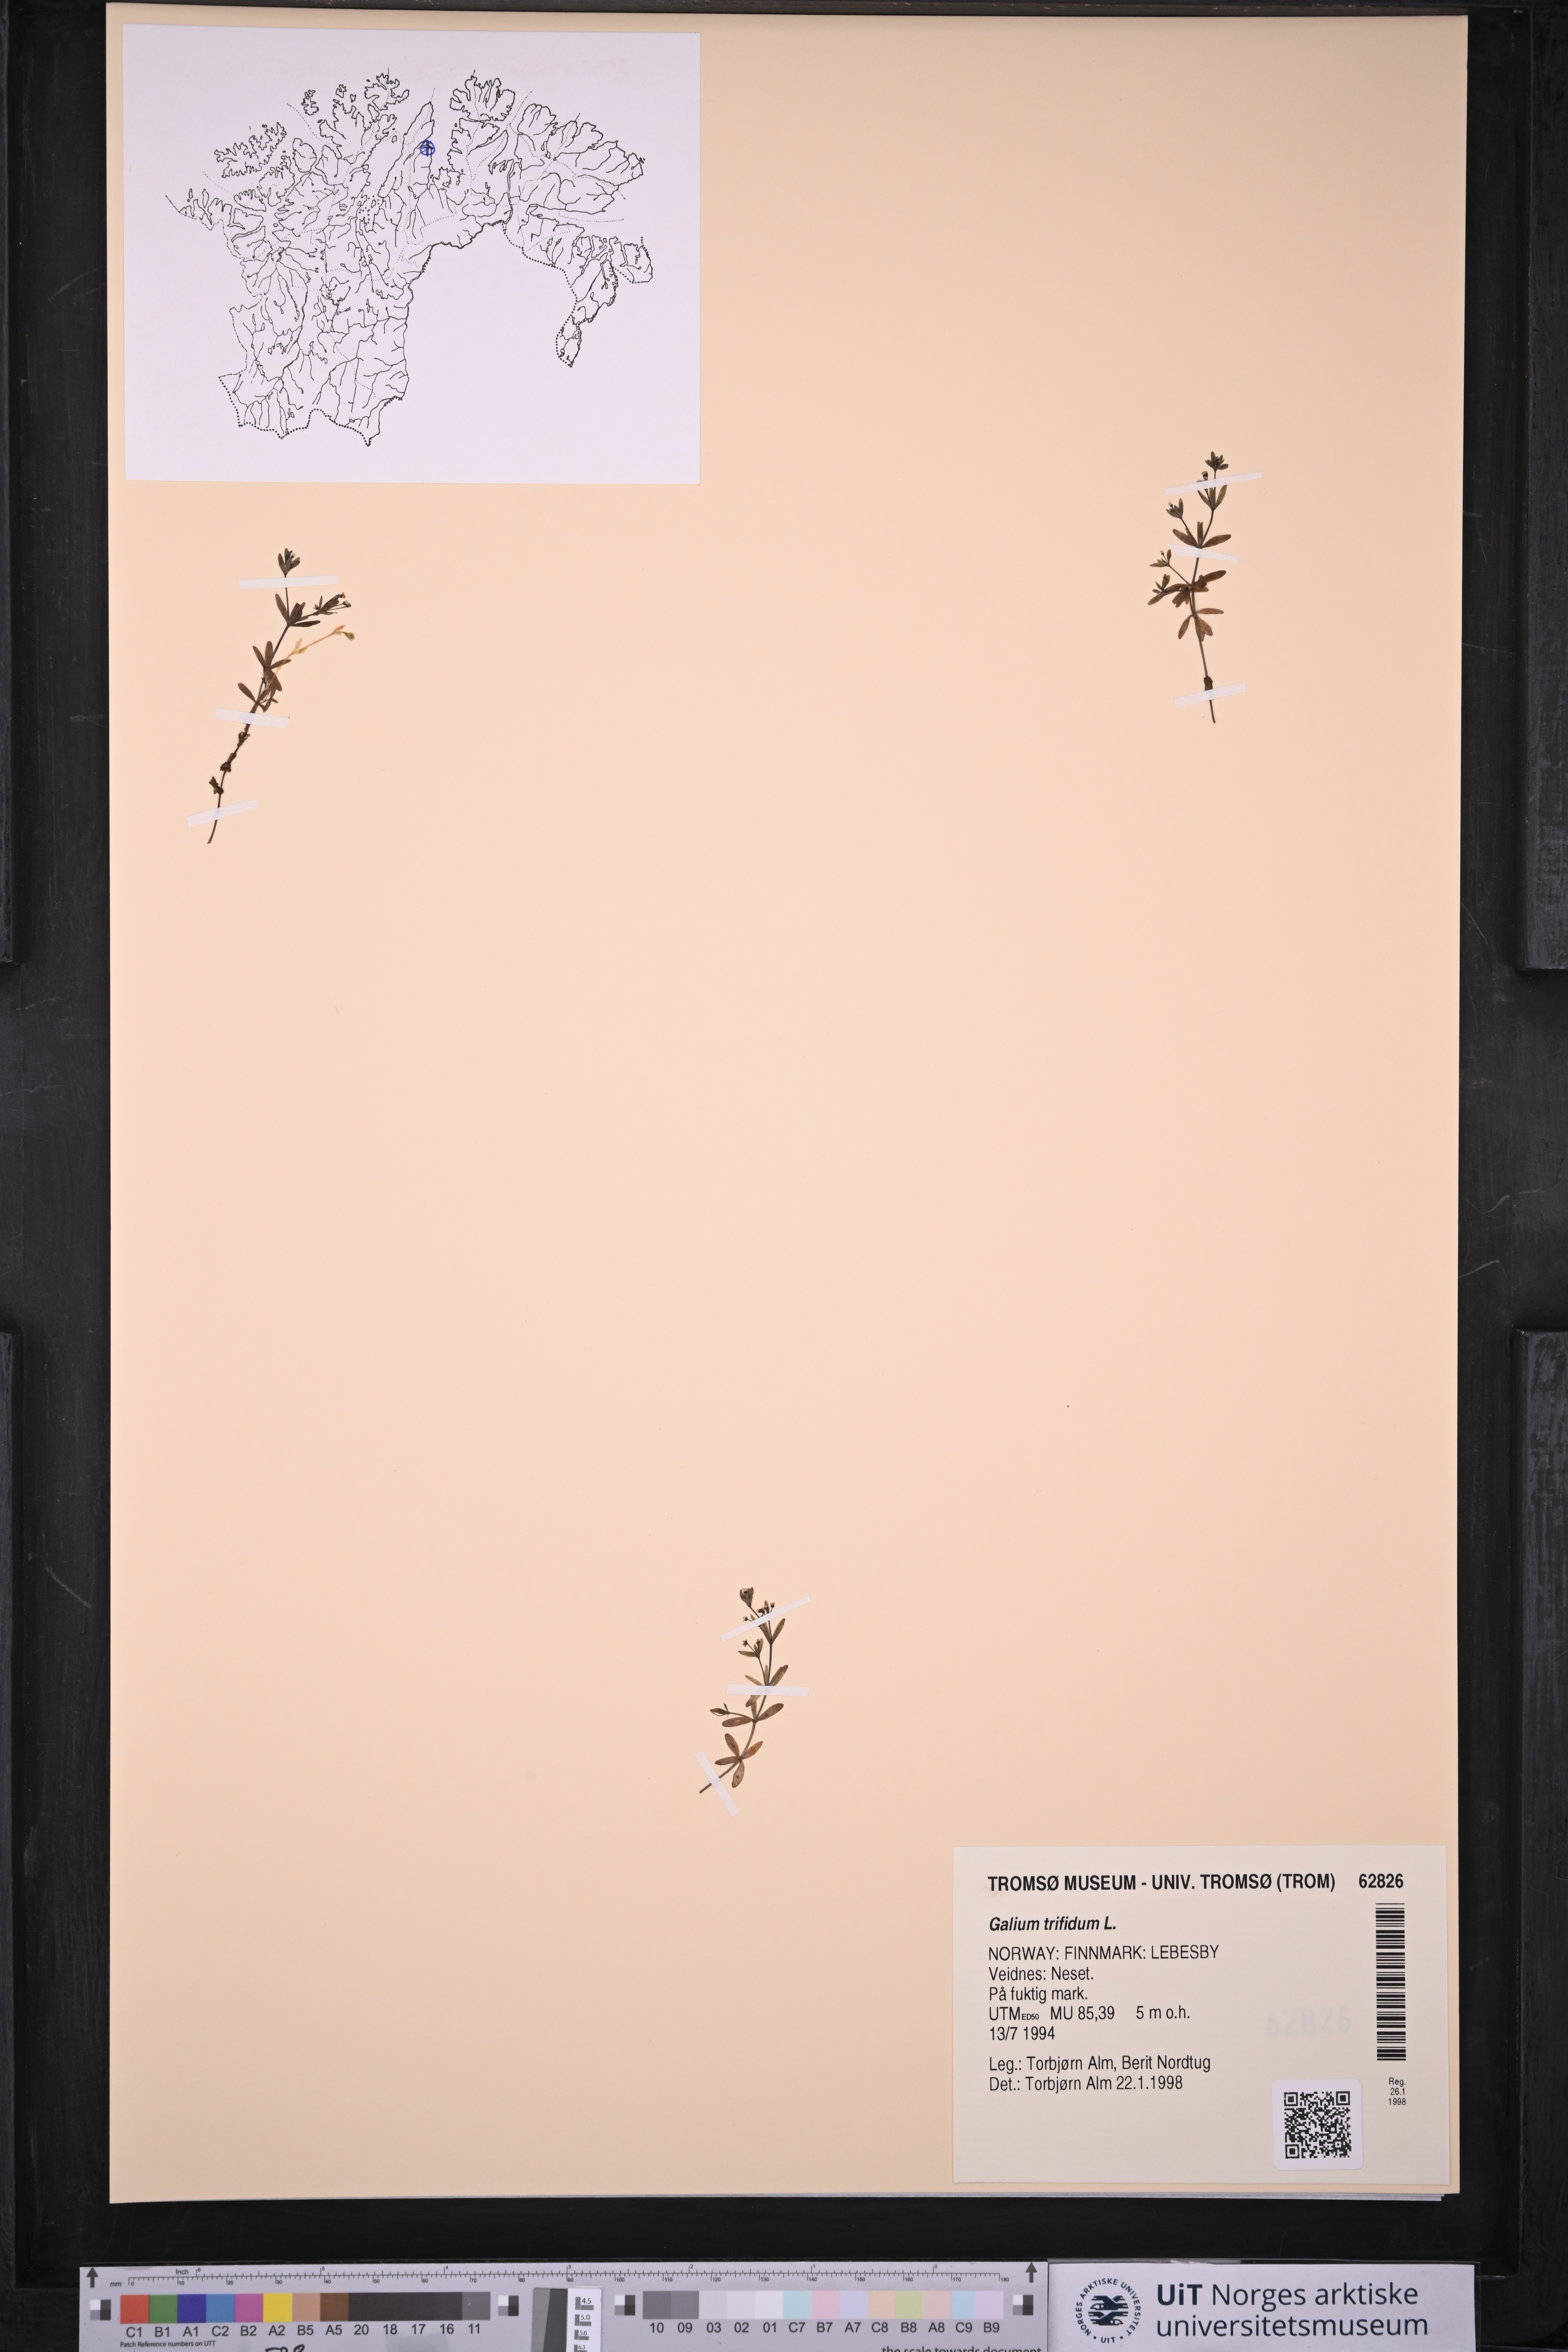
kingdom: Plantae
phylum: Tracheophyta
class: Magnoliopsida
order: Gentianales
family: Rubiaceae
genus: Galium
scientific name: Galium trifidum
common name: Small bedstraw
